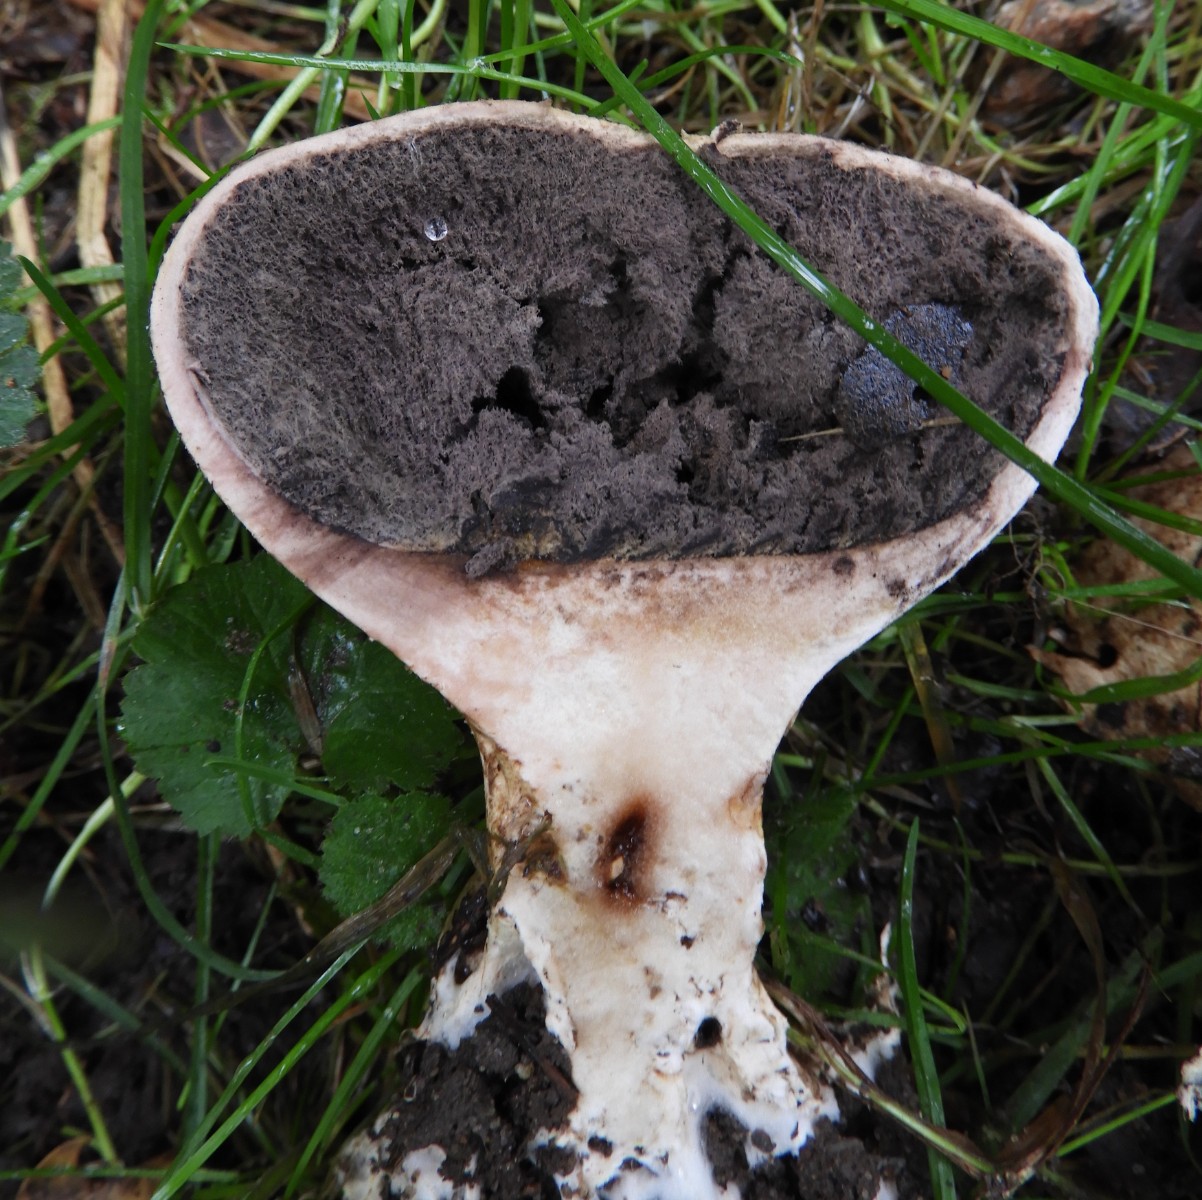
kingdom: Fungi
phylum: Basidiomycota
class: Agaricomycetes
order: Boletales
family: Sclerodermataceae
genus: Scleroderma
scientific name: Scleroderma verrucosum
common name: stilket bruskbold
